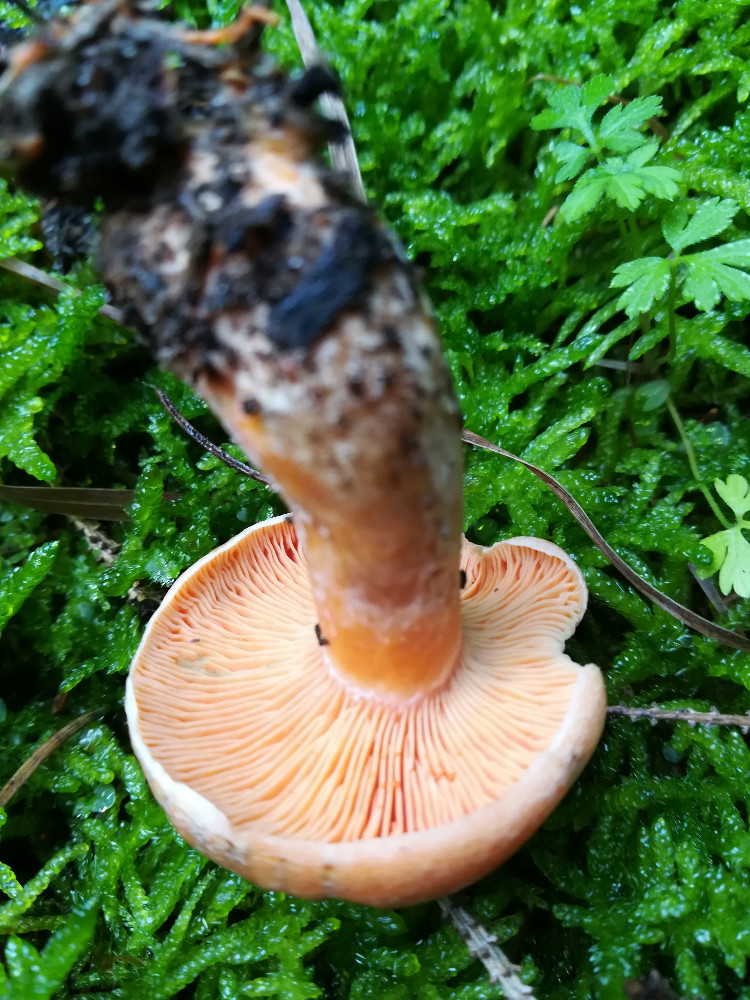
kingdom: Fungi
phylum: Basidiomycota
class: Agaricomycetes
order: Russulales
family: Russulaceae
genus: Lactarius
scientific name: Lactarius deterrimus
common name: gran-mælkehat
